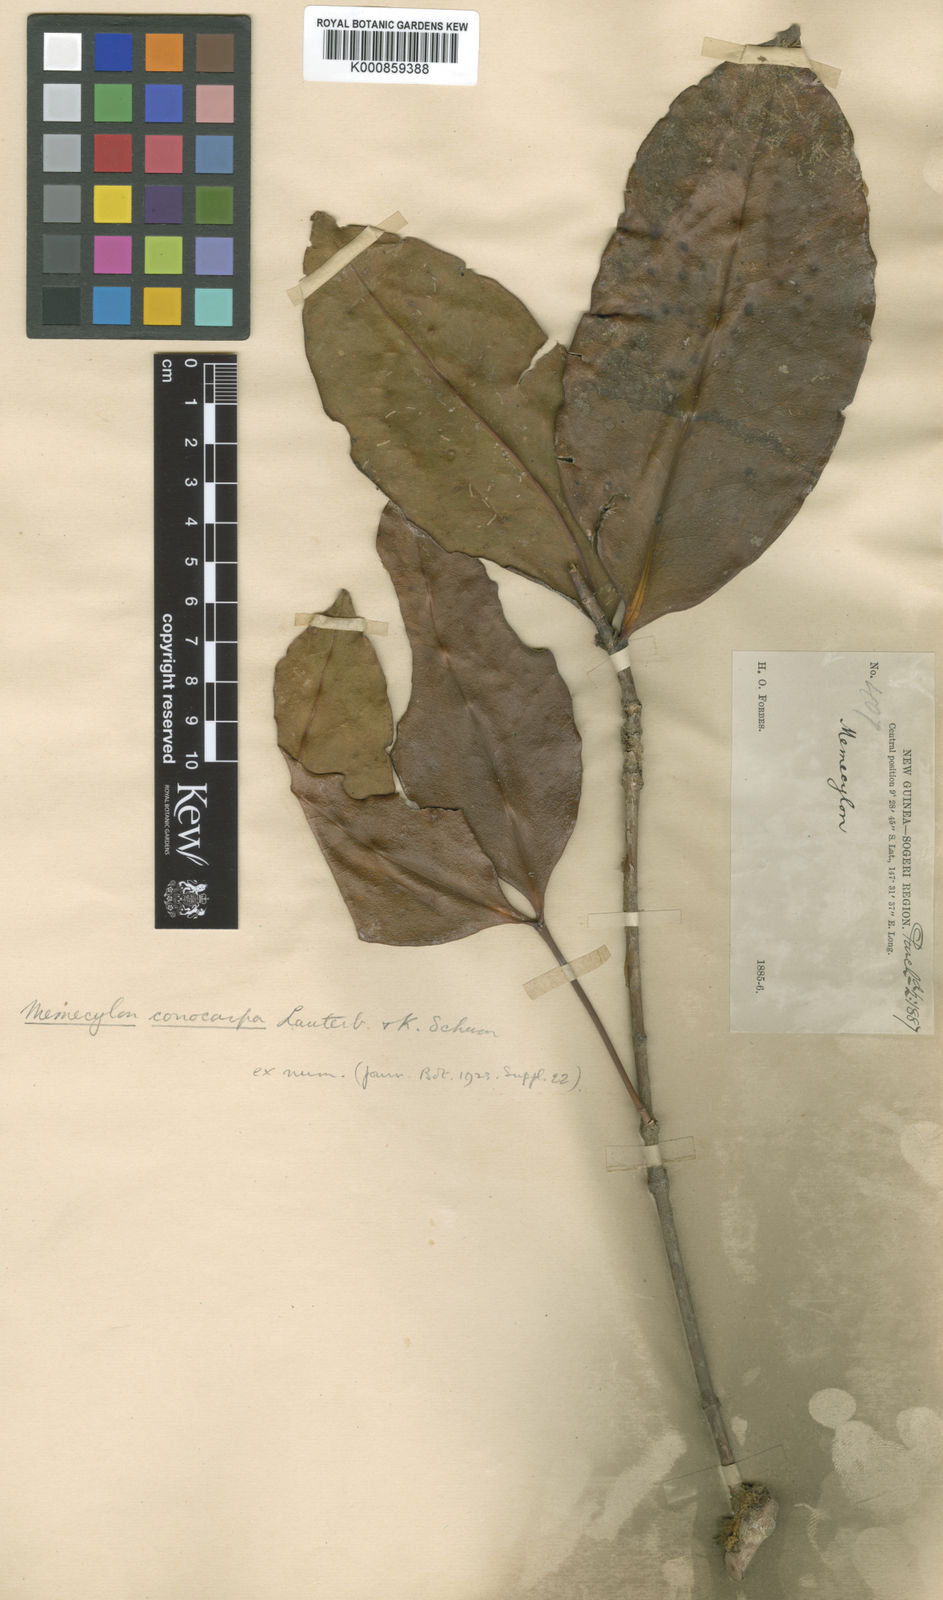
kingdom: Plantae
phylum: Tracheophyta
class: Magnoliopsida
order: Myrtales
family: Melastomataceae
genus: Memecylon
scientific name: Memecylon
